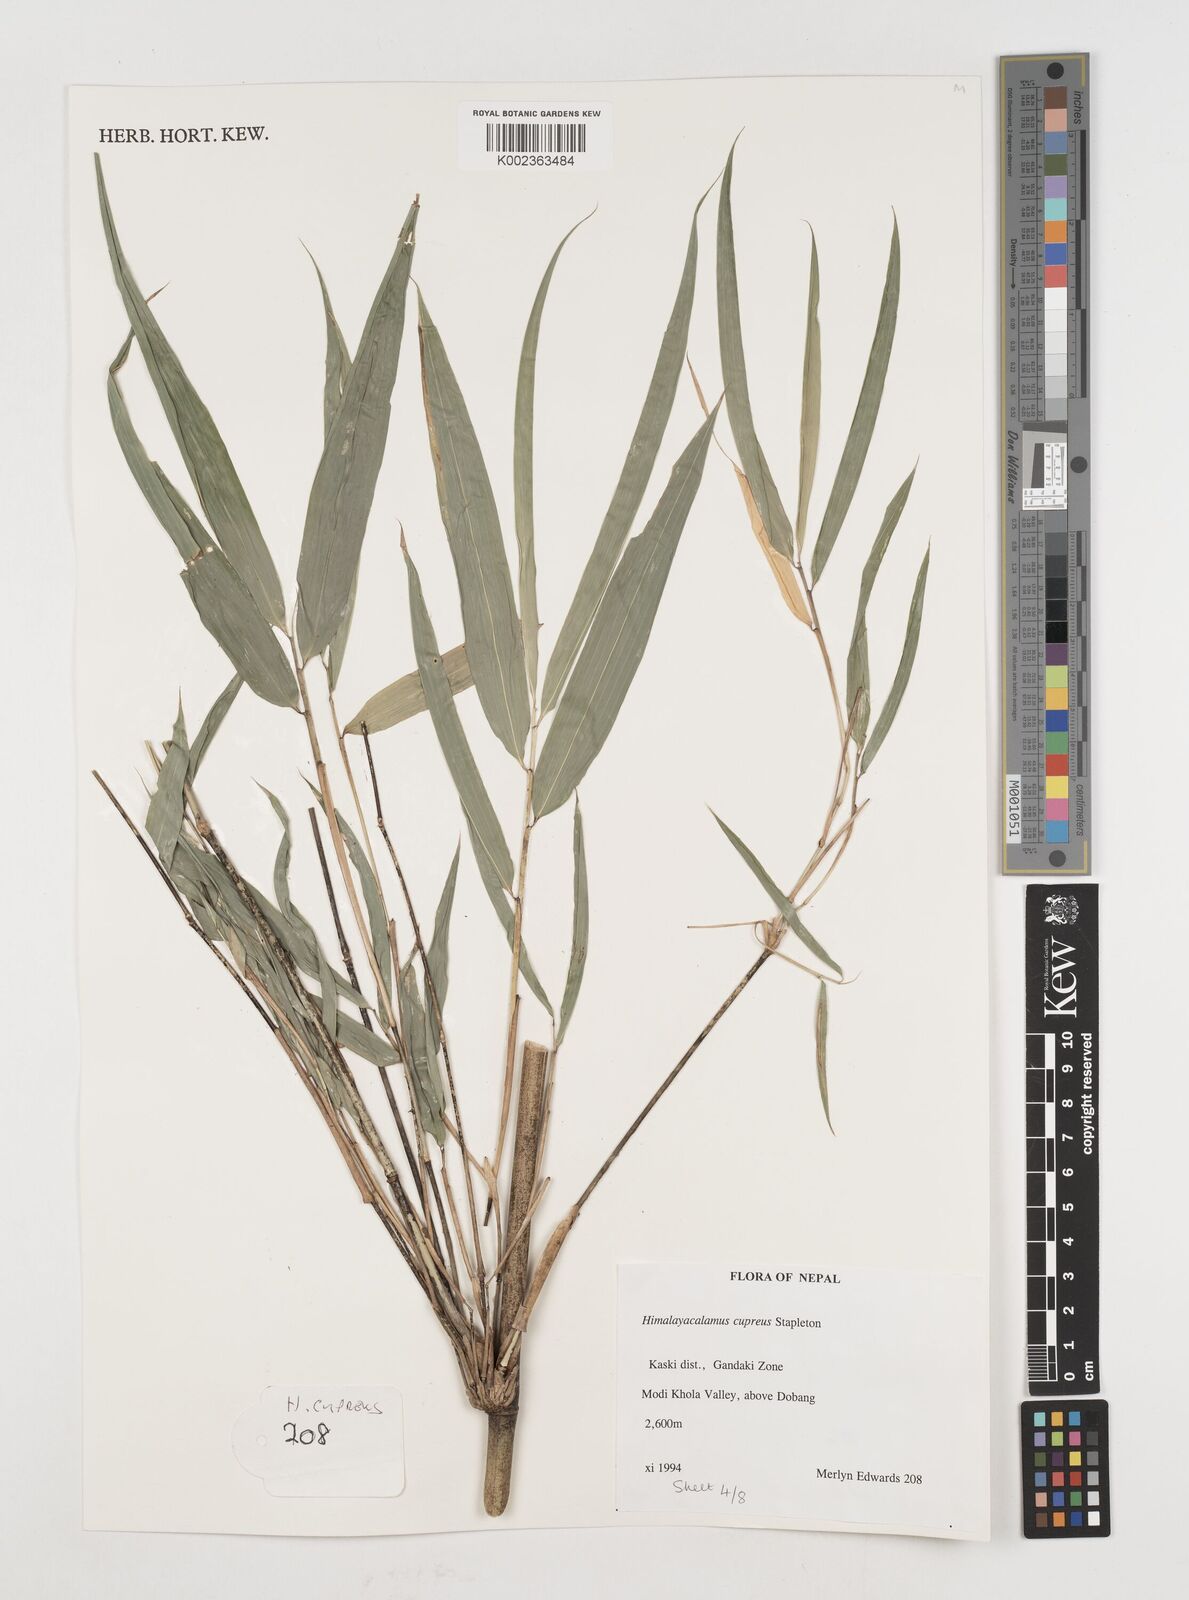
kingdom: Plantae
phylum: Tracheophyta
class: Liliopsida
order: Poales
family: Poaceae
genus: Himalayacalamus
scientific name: Himalayacalamus cupreus
